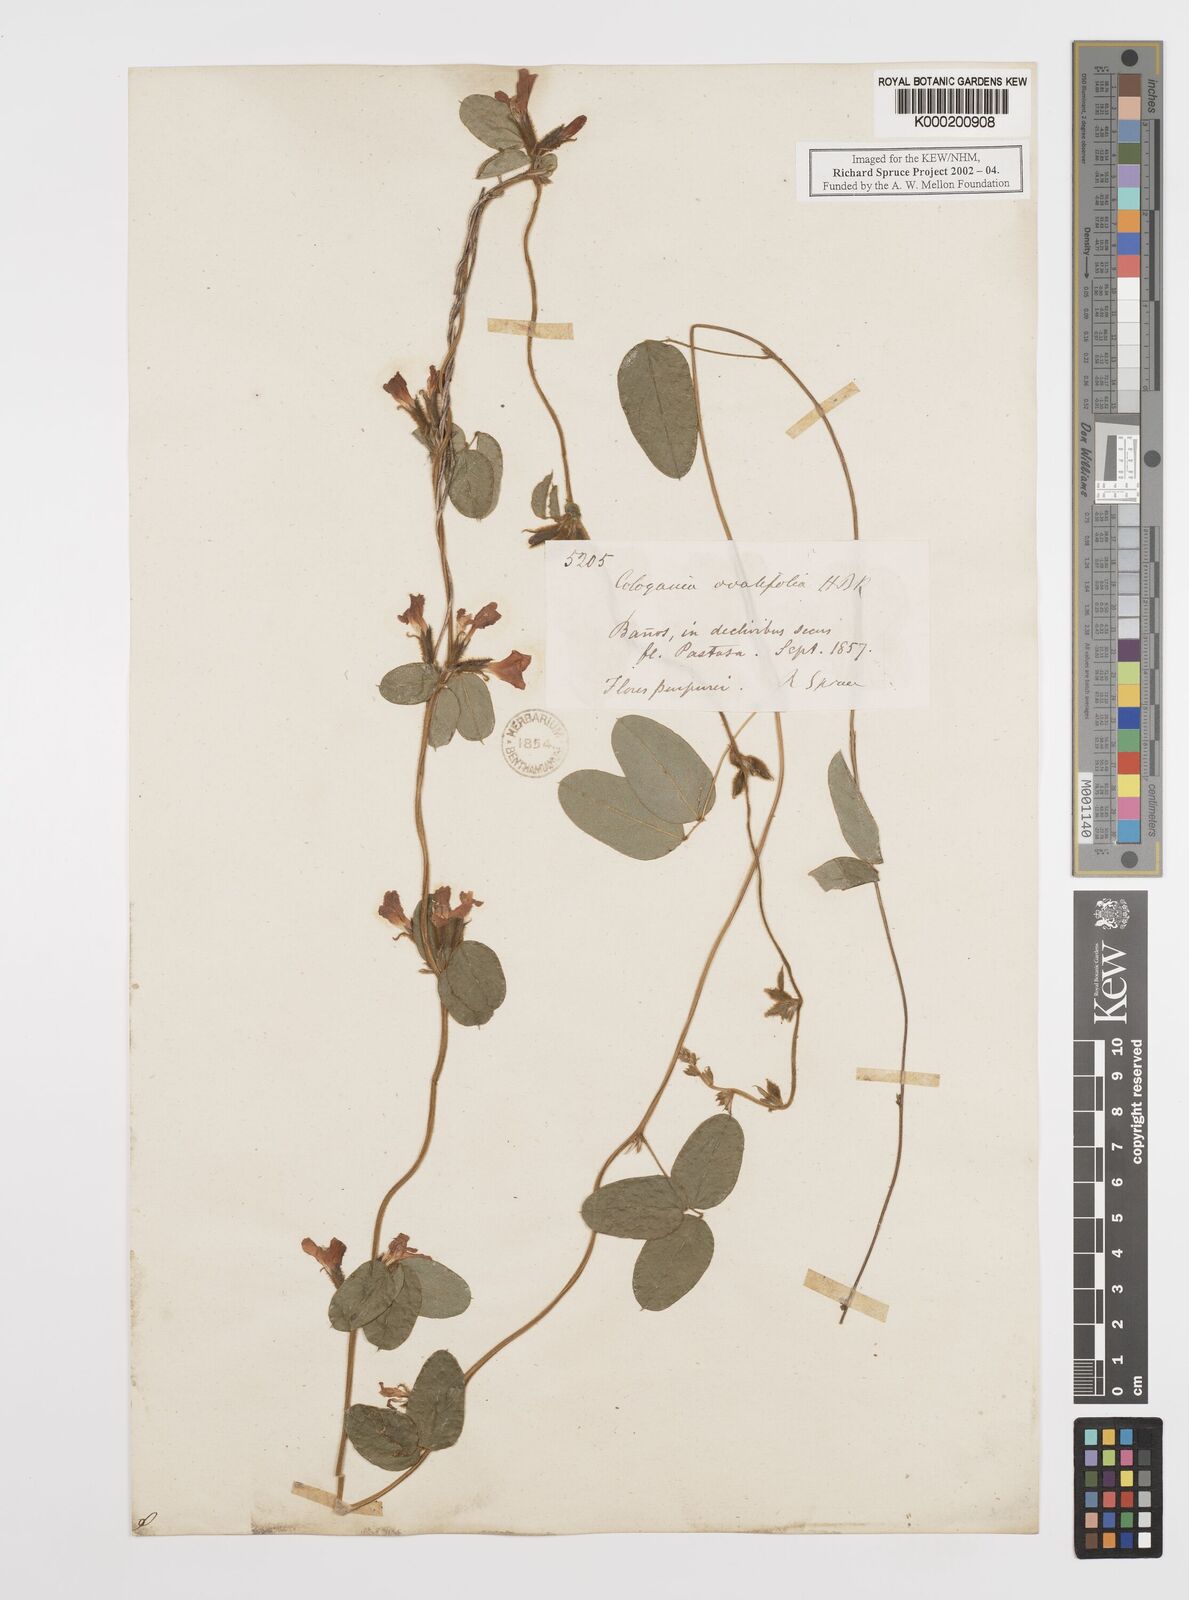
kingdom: Plantae
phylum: Tracheophyta
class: Magnoliopsida
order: Fabales
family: Fabaceae
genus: Cologania
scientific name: Cologania broussonetii
